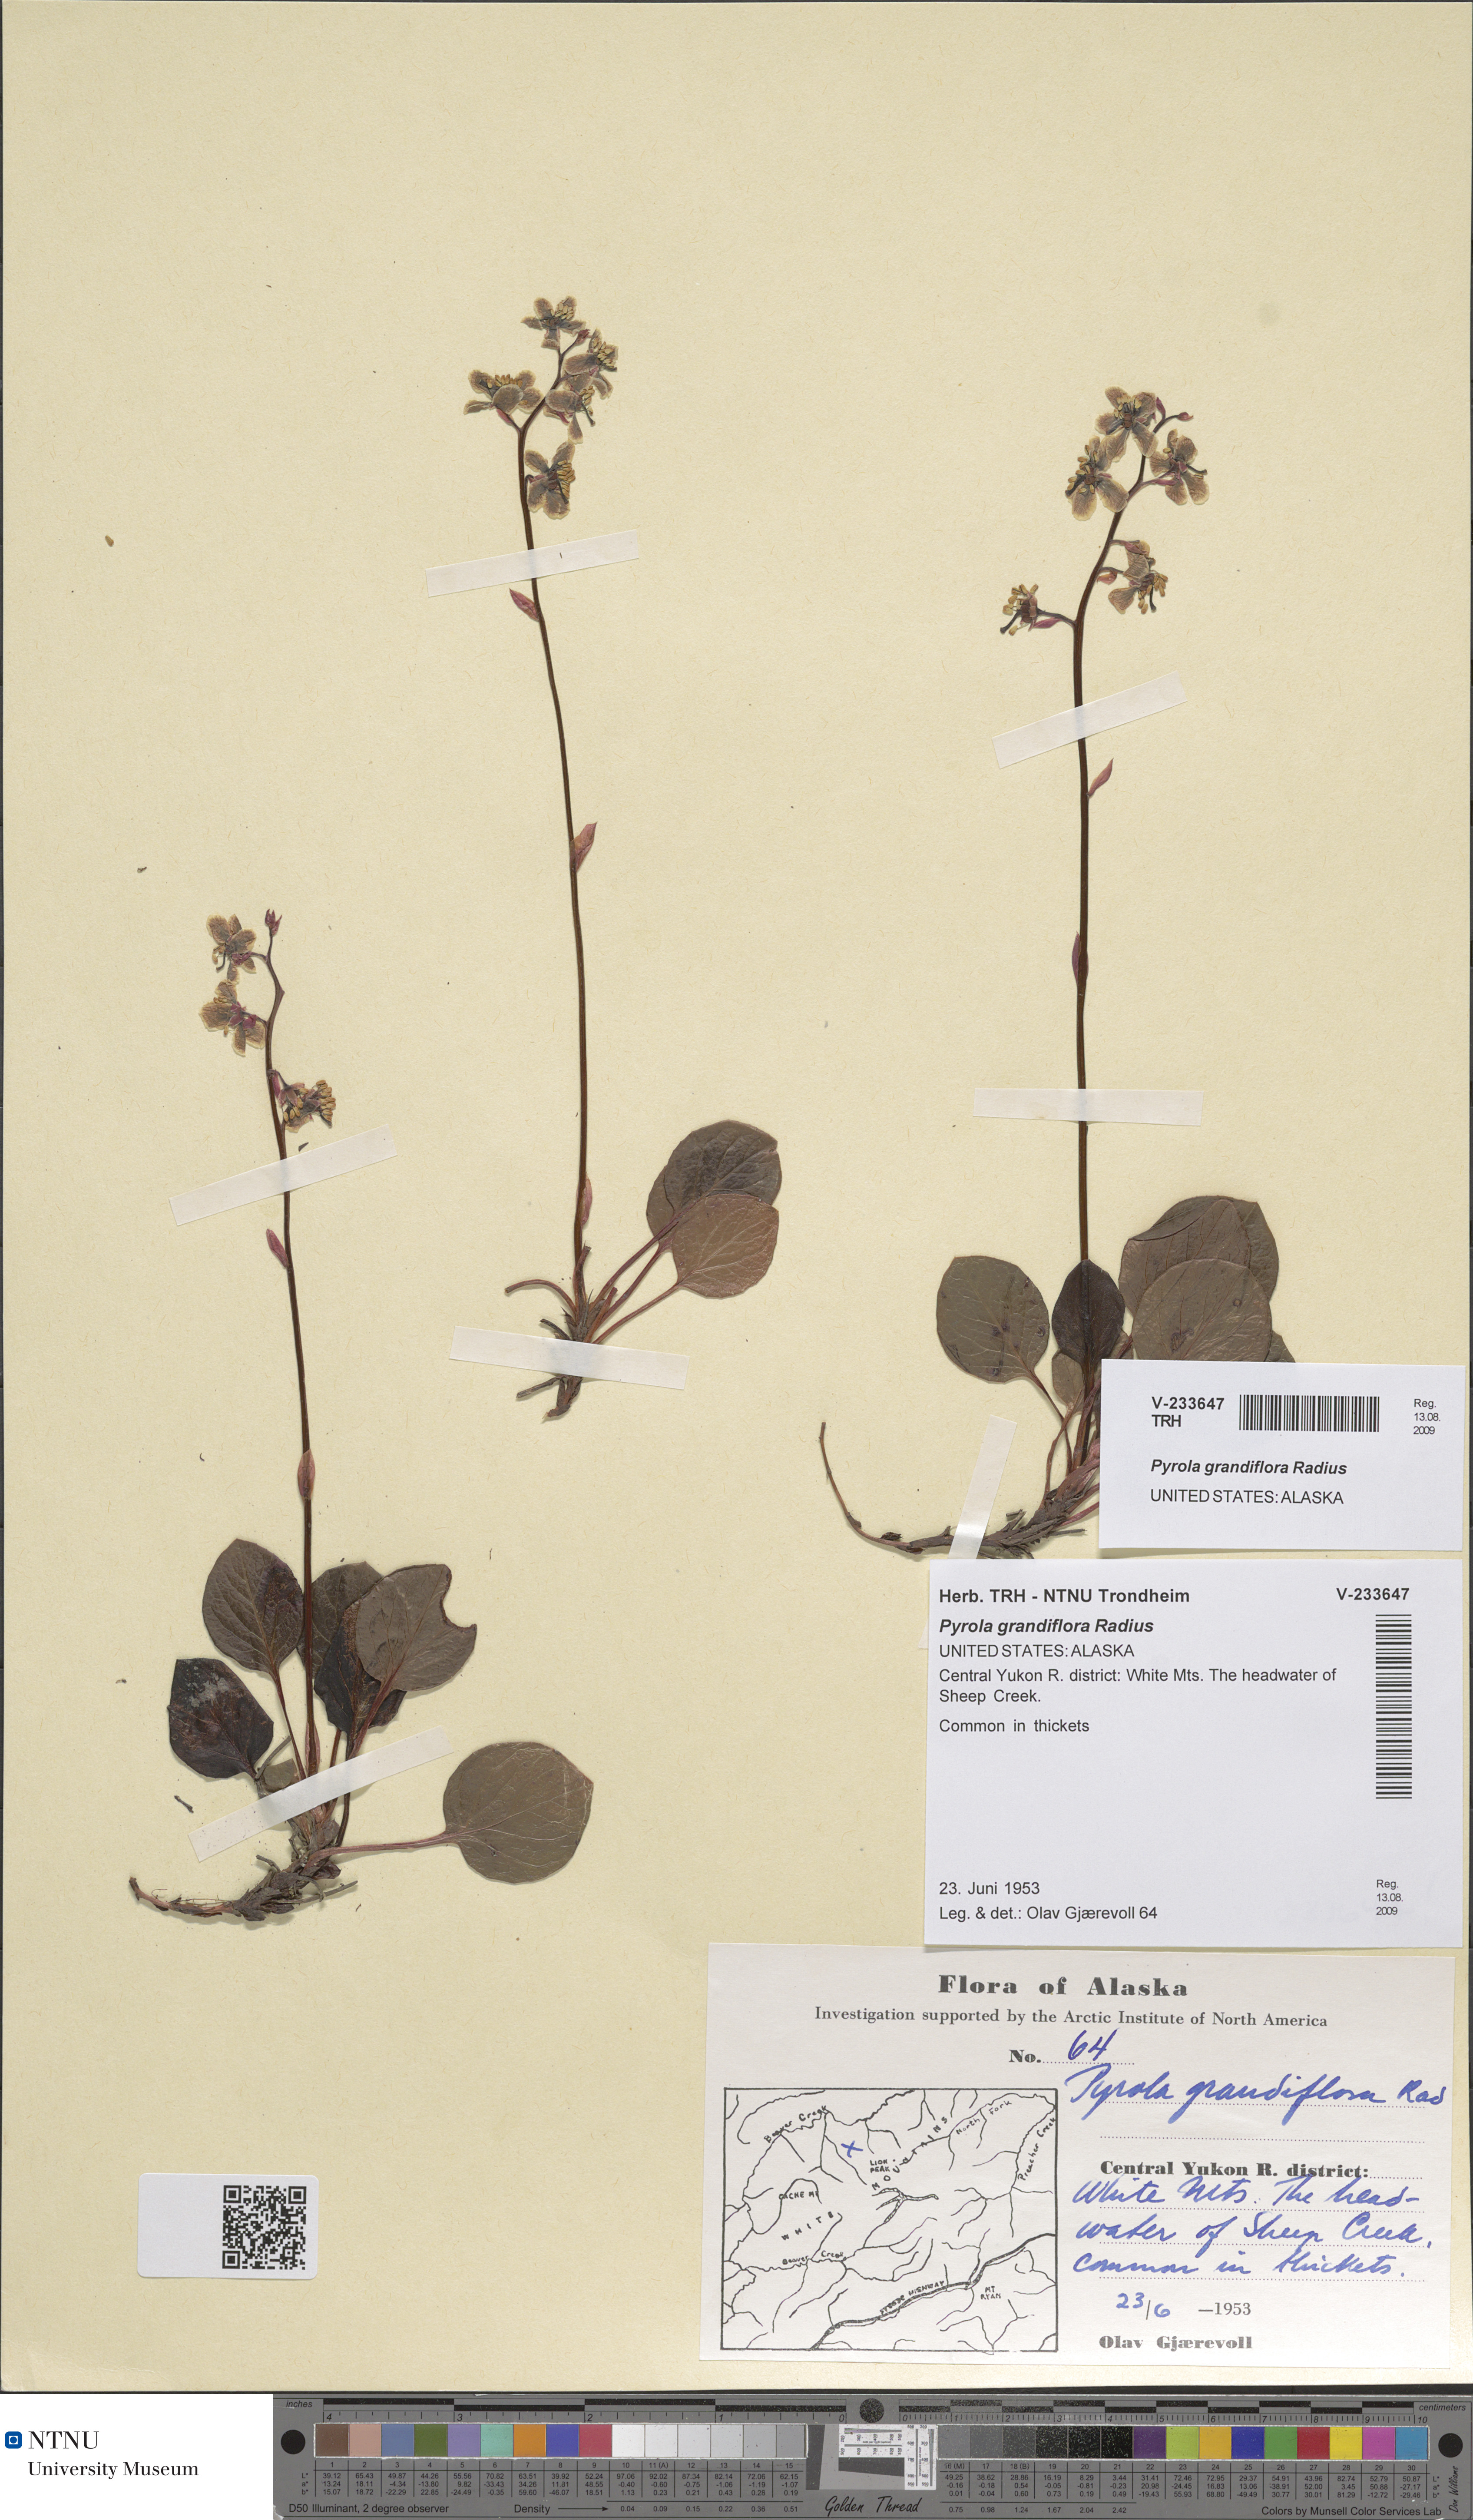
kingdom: Plantae
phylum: Tracheophyta
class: Magnoliopsida
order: Ericales
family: Ericaceae
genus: Pyrola
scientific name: Pyrola grandiflora
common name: Arctic pyrola
